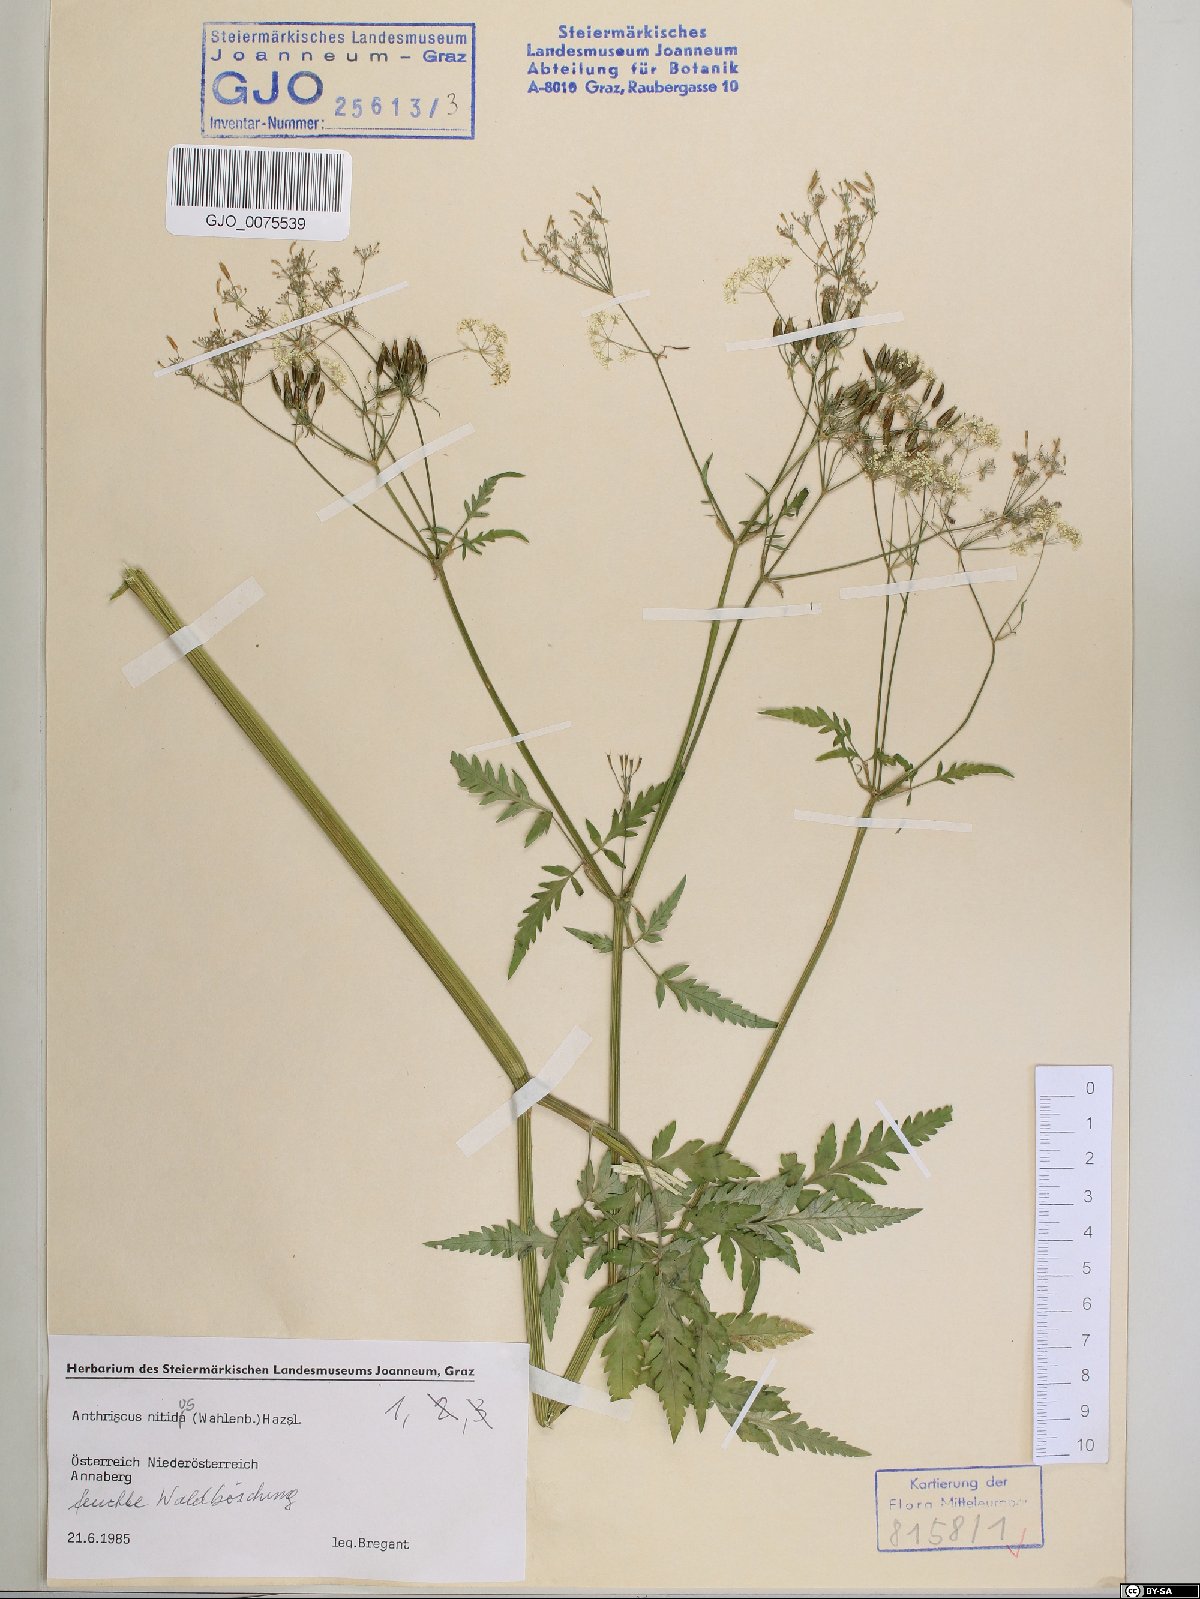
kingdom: Plantae
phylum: Tracheophyta
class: Magnoliopsida
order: Apiales
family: Apiaceae
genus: Anthriscus
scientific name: Anthriscus nitida
